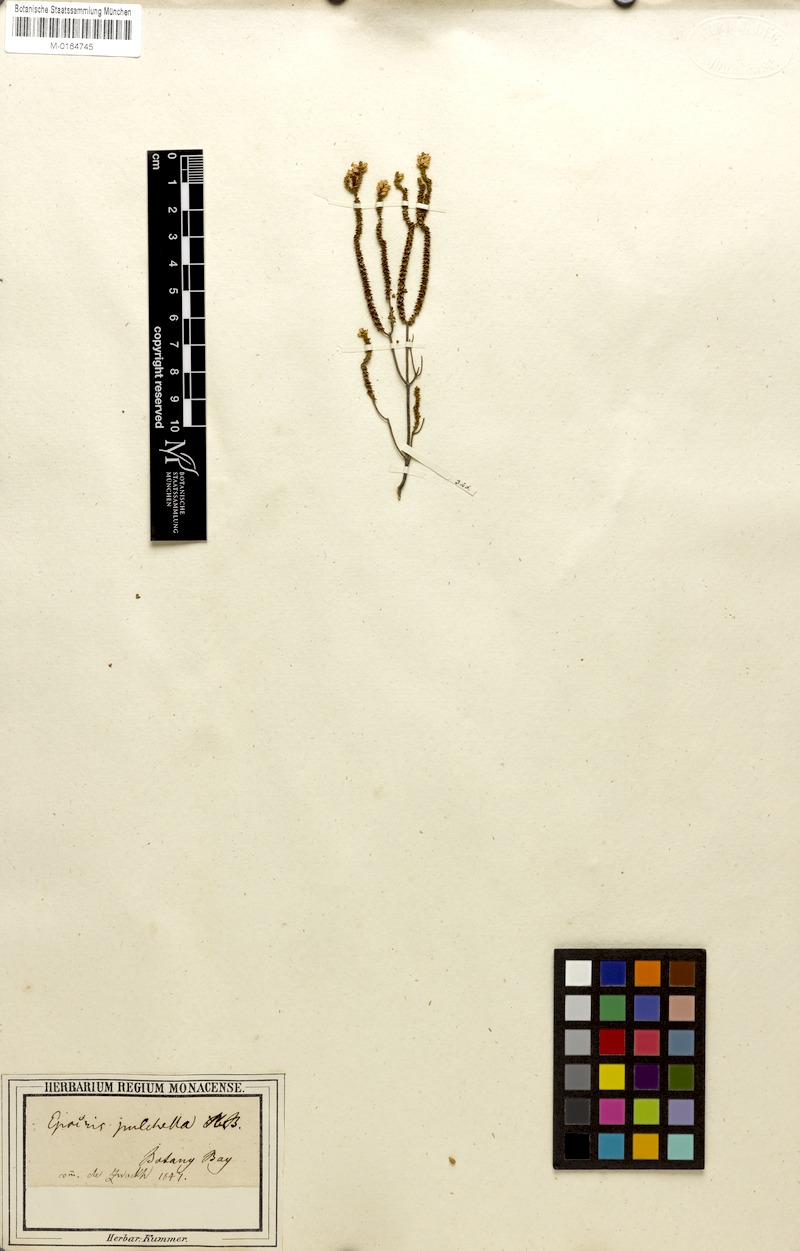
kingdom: Plantae
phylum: Tracheophyta
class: Magnoliopsida
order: Ericales
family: Ericaceae
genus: Epacris
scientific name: Epacris pulchella
